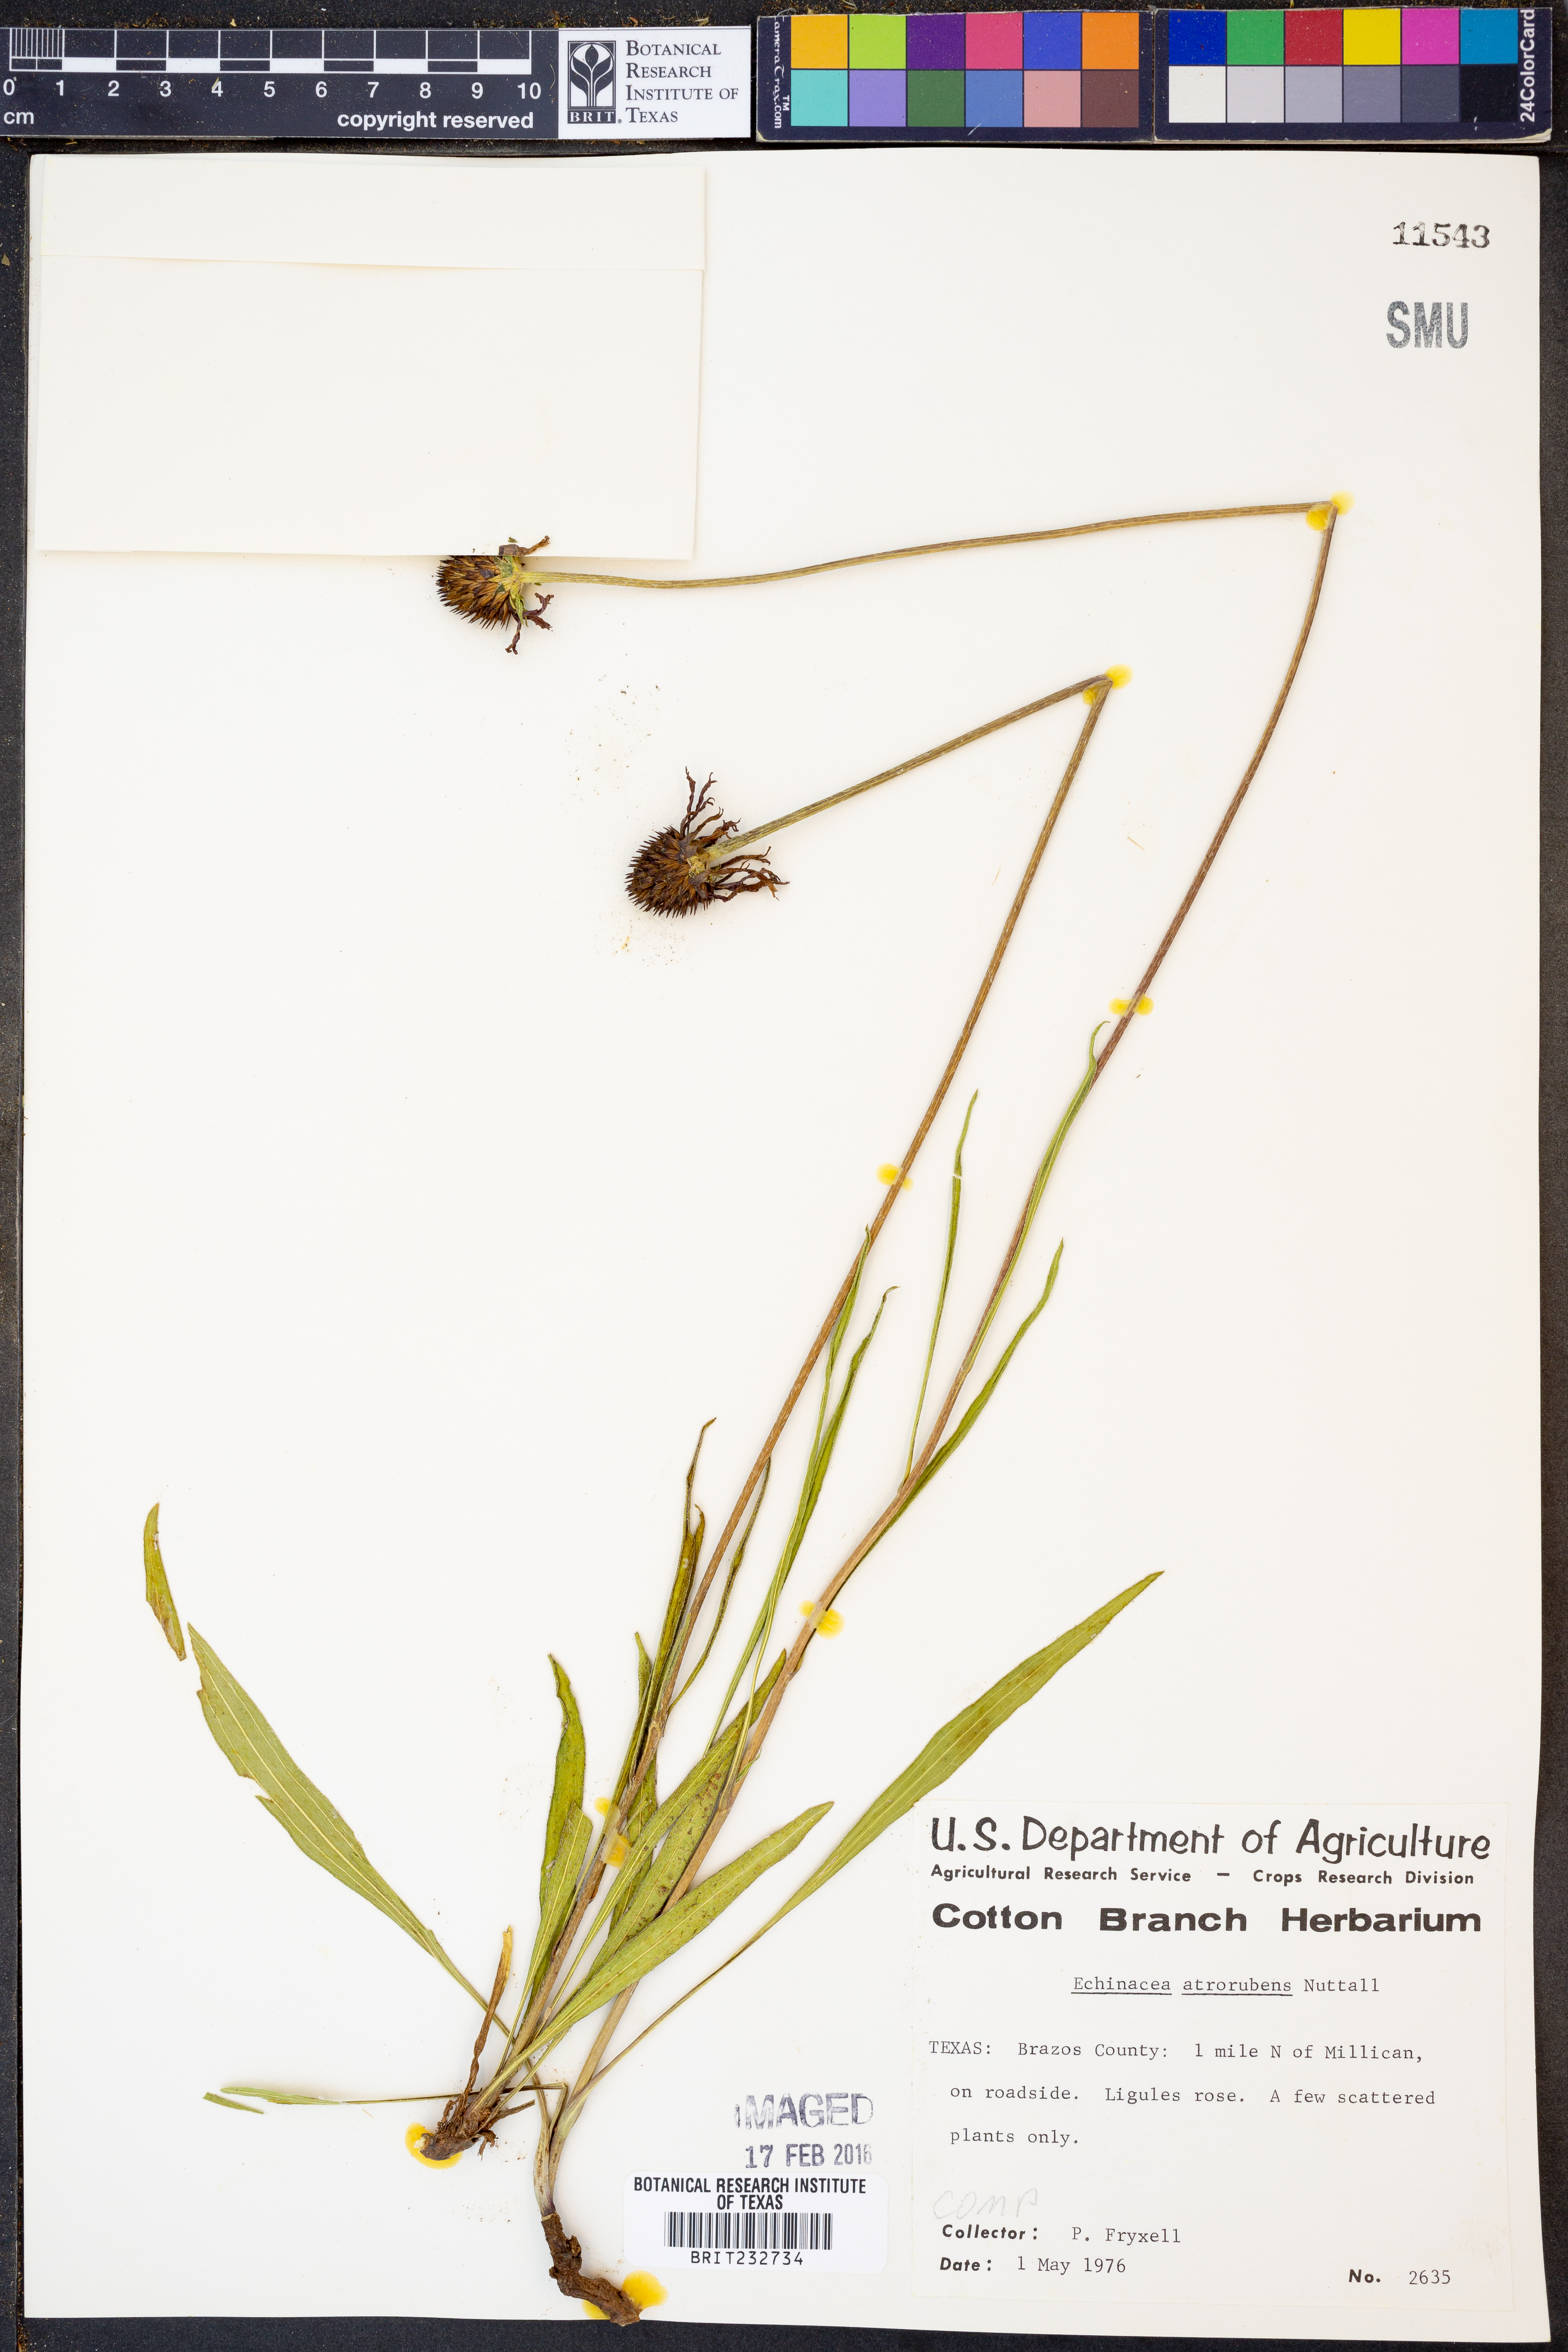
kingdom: Plantae
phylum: Tracheophyta
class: Magnoliopsida
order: Asterales
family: Asteraceae
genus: Echinacea
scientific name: Echinacea atrorubens
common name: Topeka purple-coneflower
